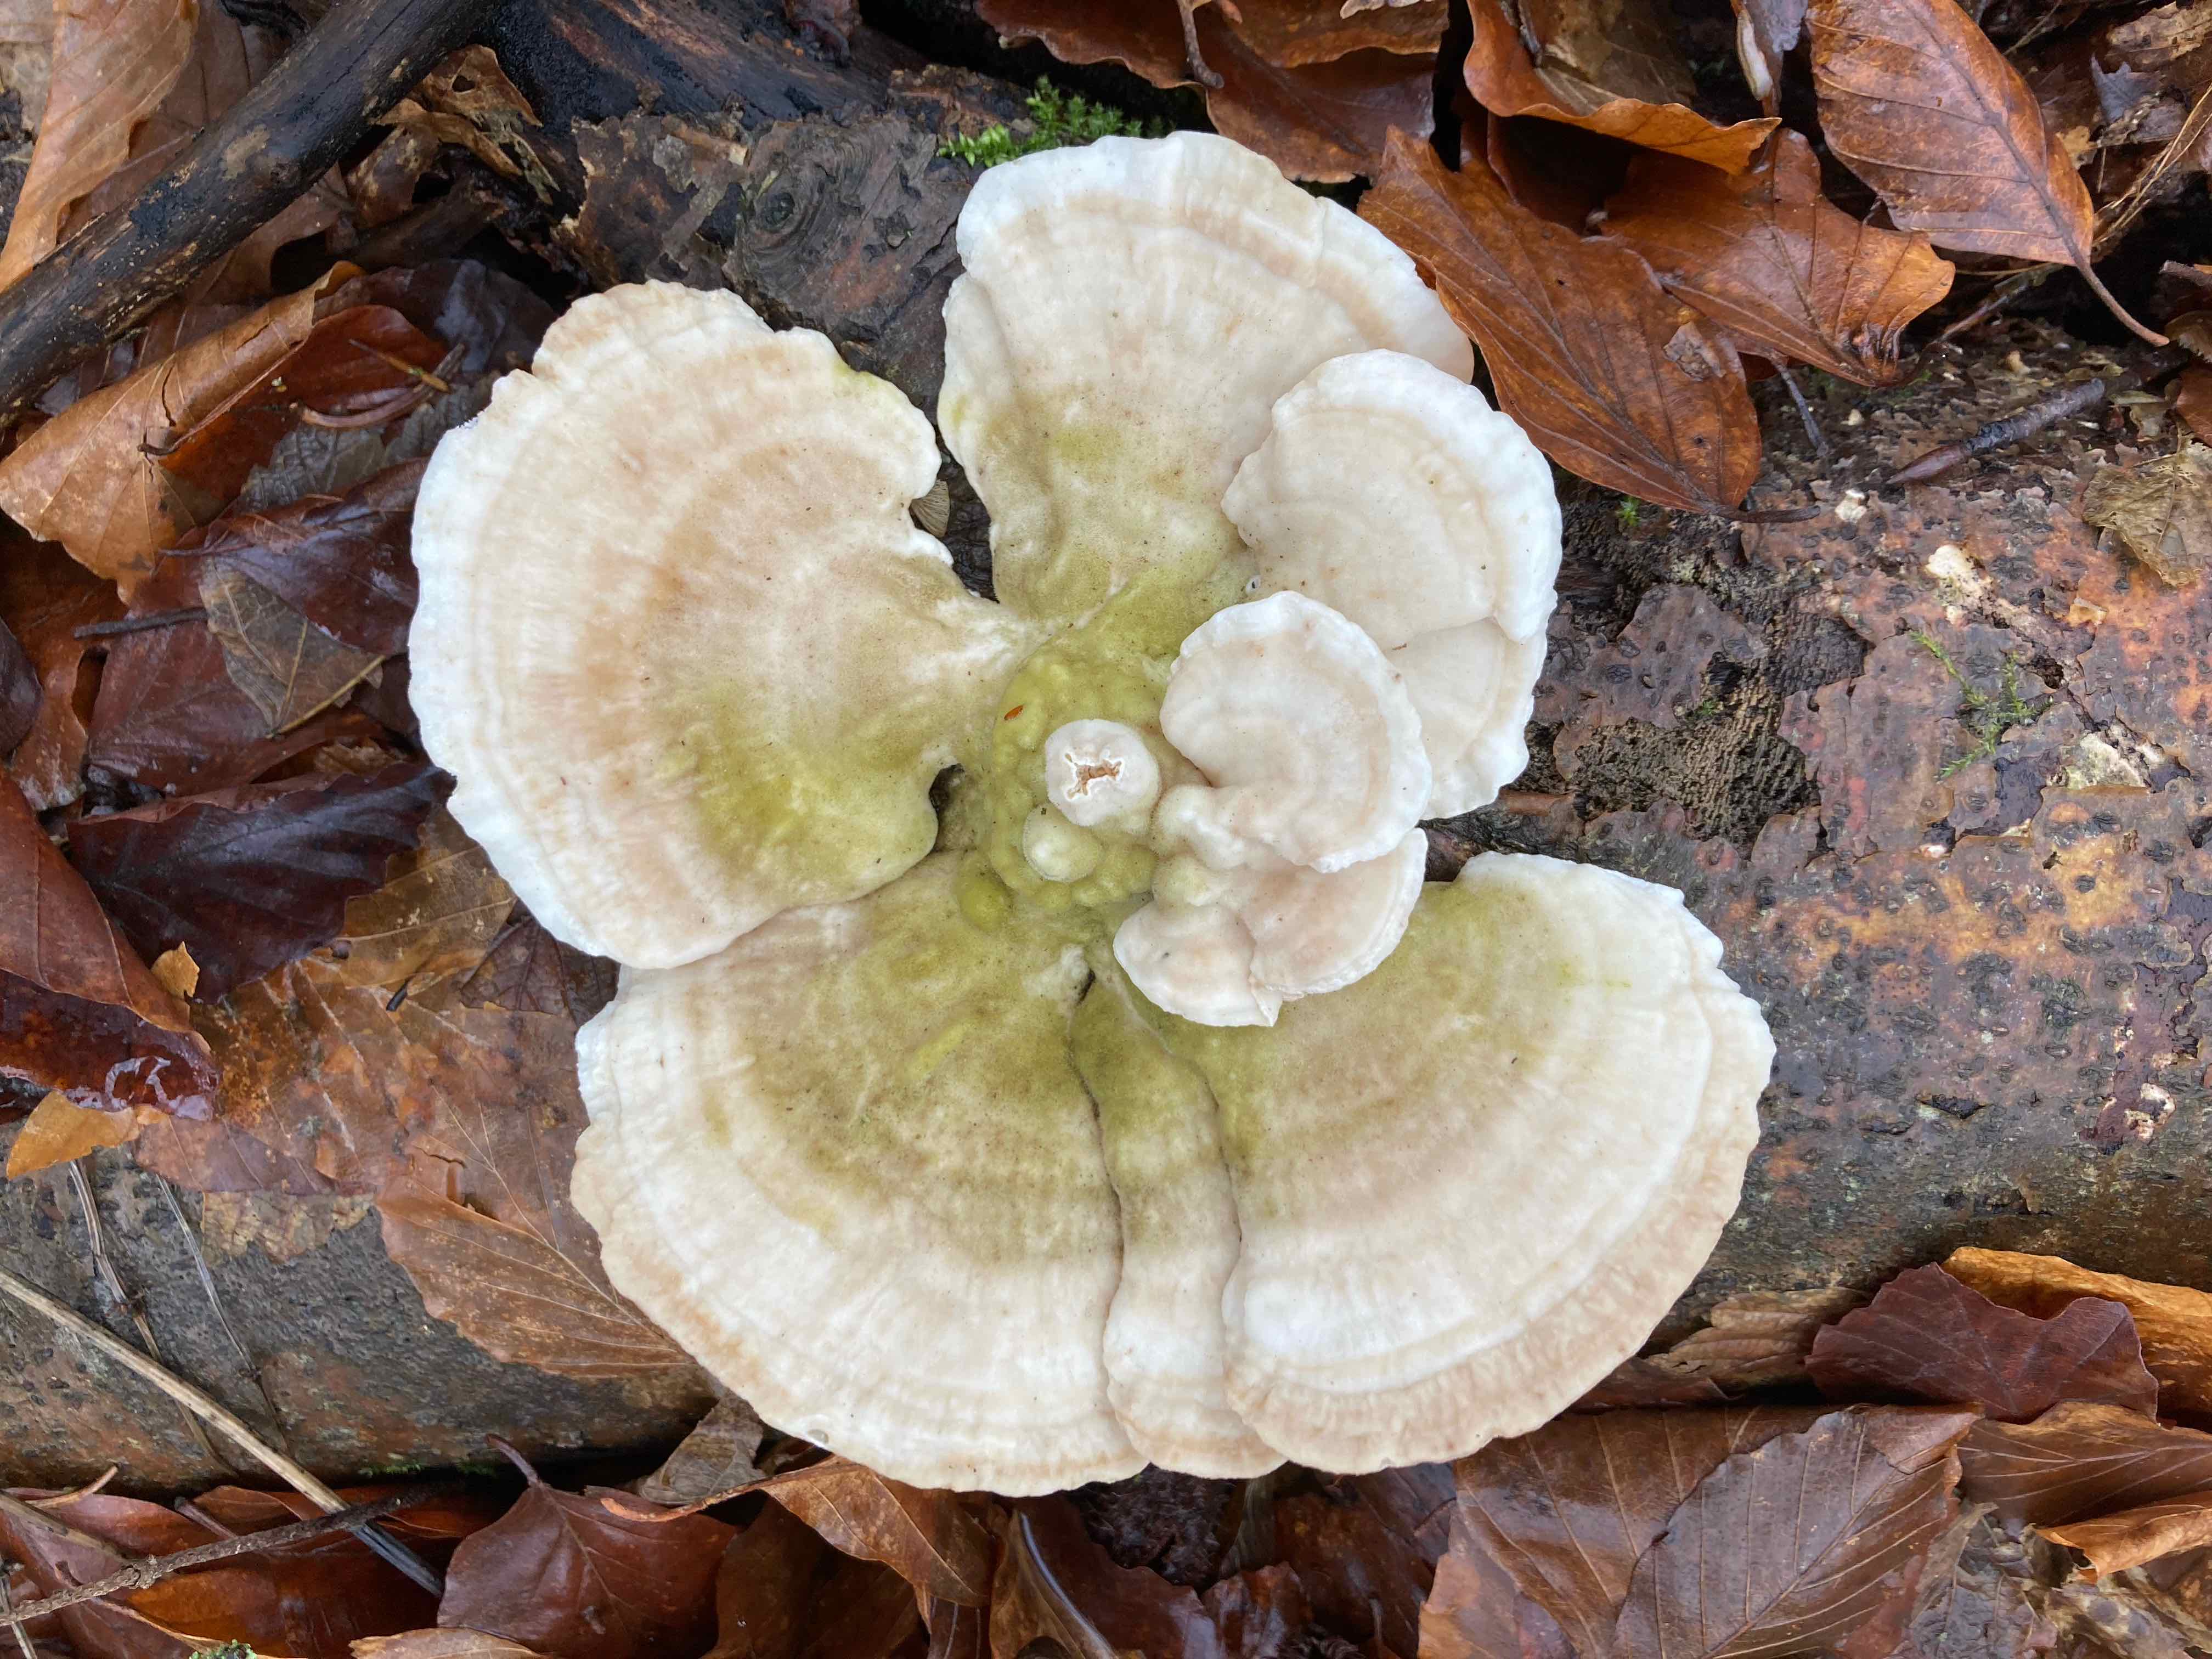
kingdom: Fungi
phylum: Basidiomycota
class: Agaricomycetes
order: Polyporales
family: Polyporaceae
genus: Trametes
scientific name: Trametes gibbosa
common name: puklet læderporesvamp
